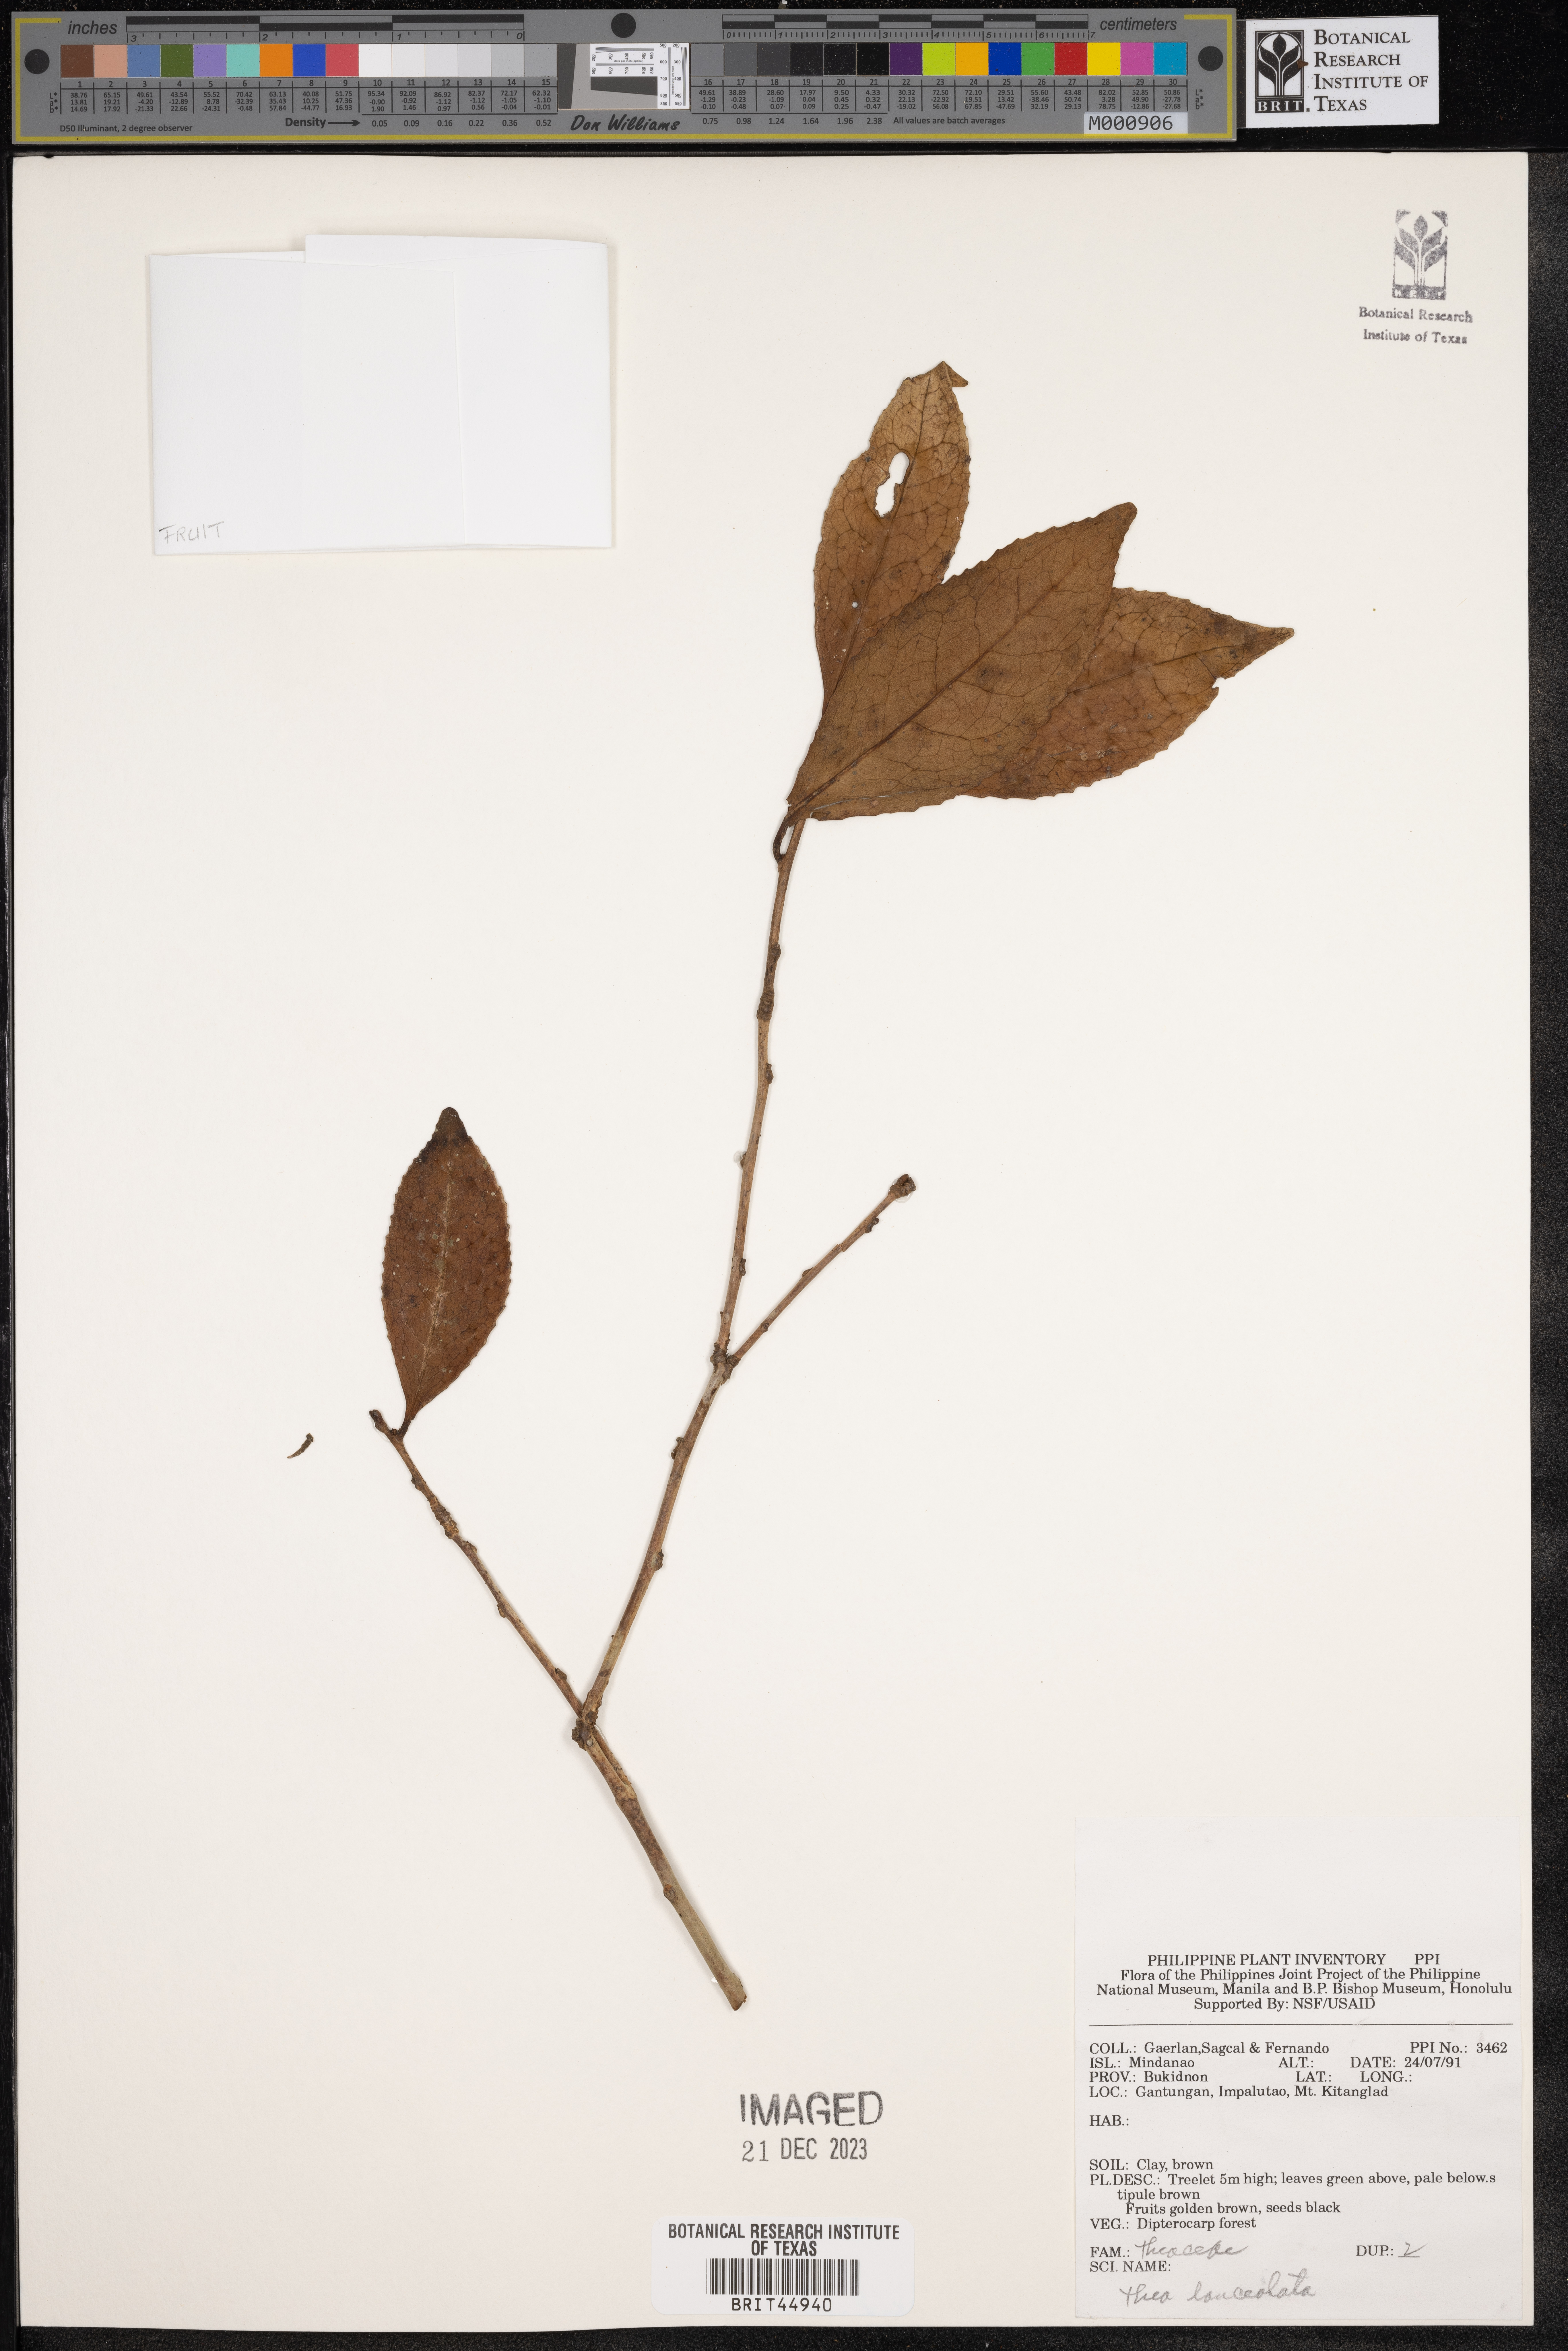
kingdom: Plantae
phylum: Tracheophyta
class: Magnoliopsida
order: Ericales
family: Theaceae
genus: Camellia
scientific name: Camellia lanceolata
